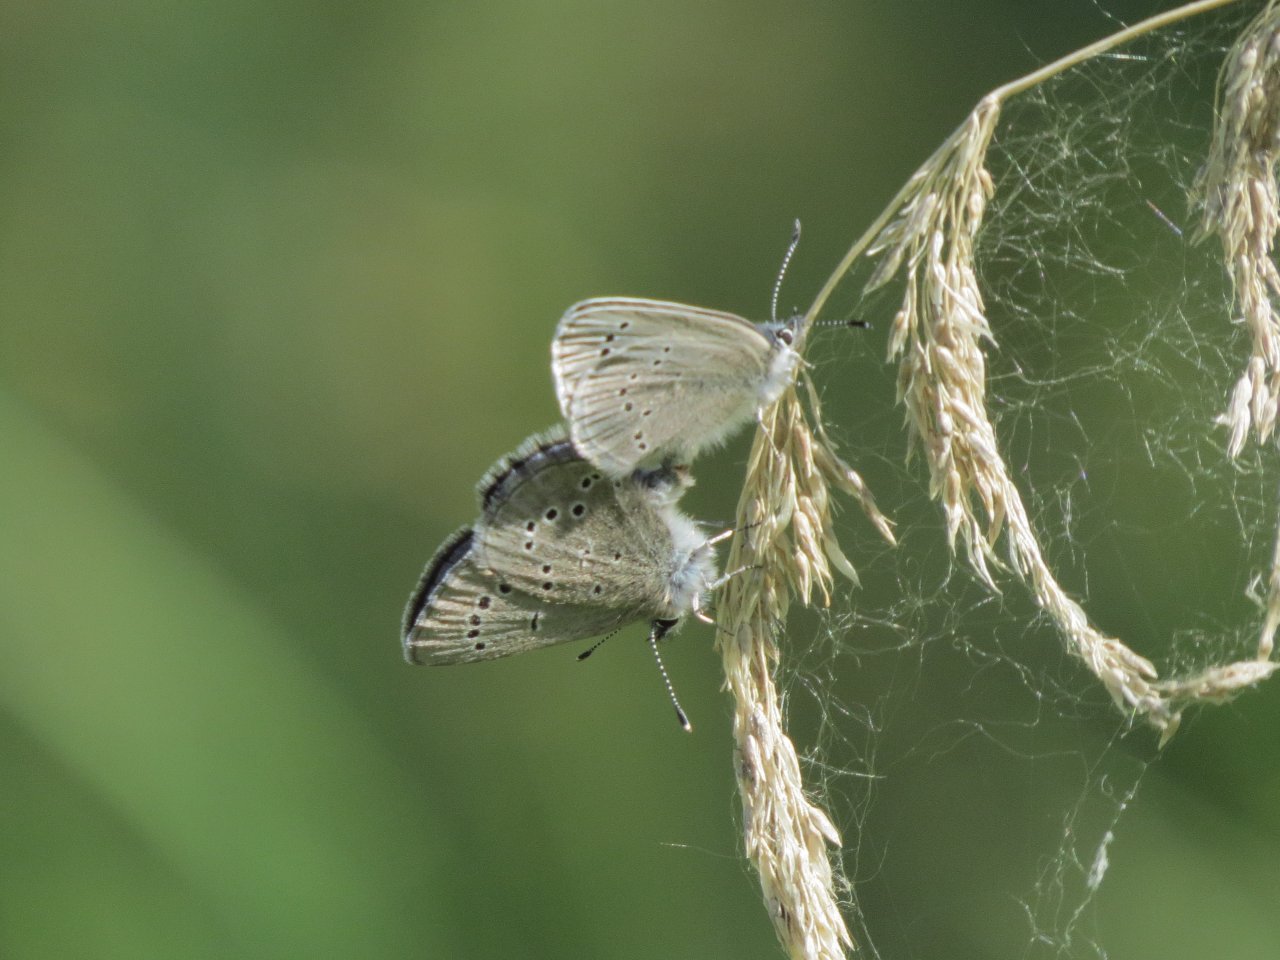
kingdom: Animalia
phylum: Arthropoda
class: Insecta
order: Lepidoptera
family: Lycaenidae
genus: Glaucopsyche
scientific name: Glaucopsyche lygdamus
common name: Silvery Blue
